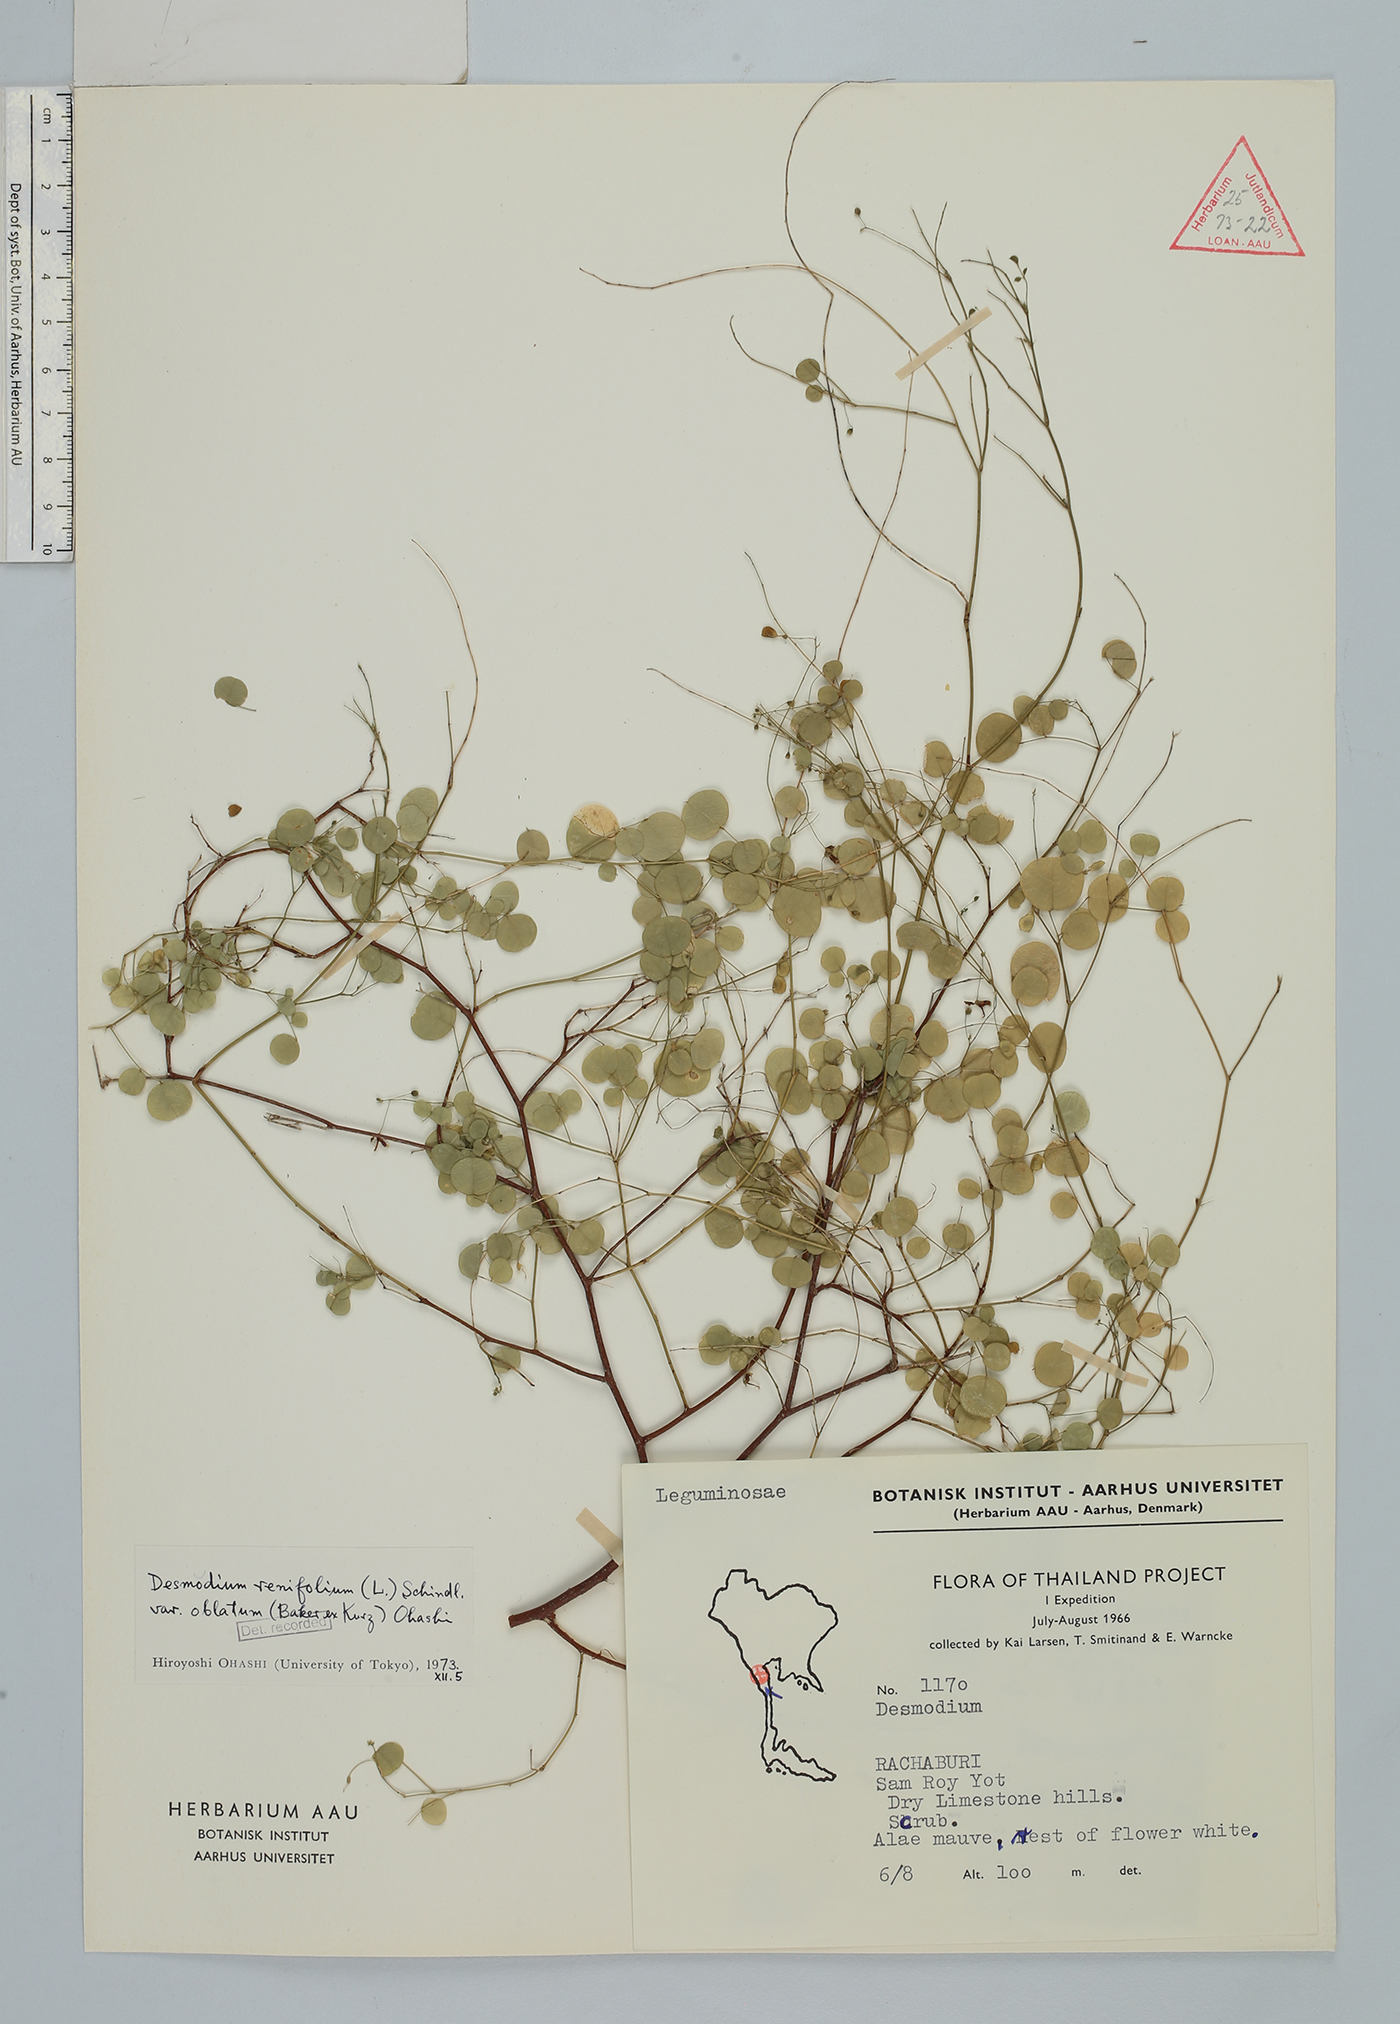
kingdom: Plantae
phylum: Tracheophyta
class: Magnoliopsida
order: Fabales
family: Fabaceae
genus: Huangtcia
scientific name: Huangtcia oblata
